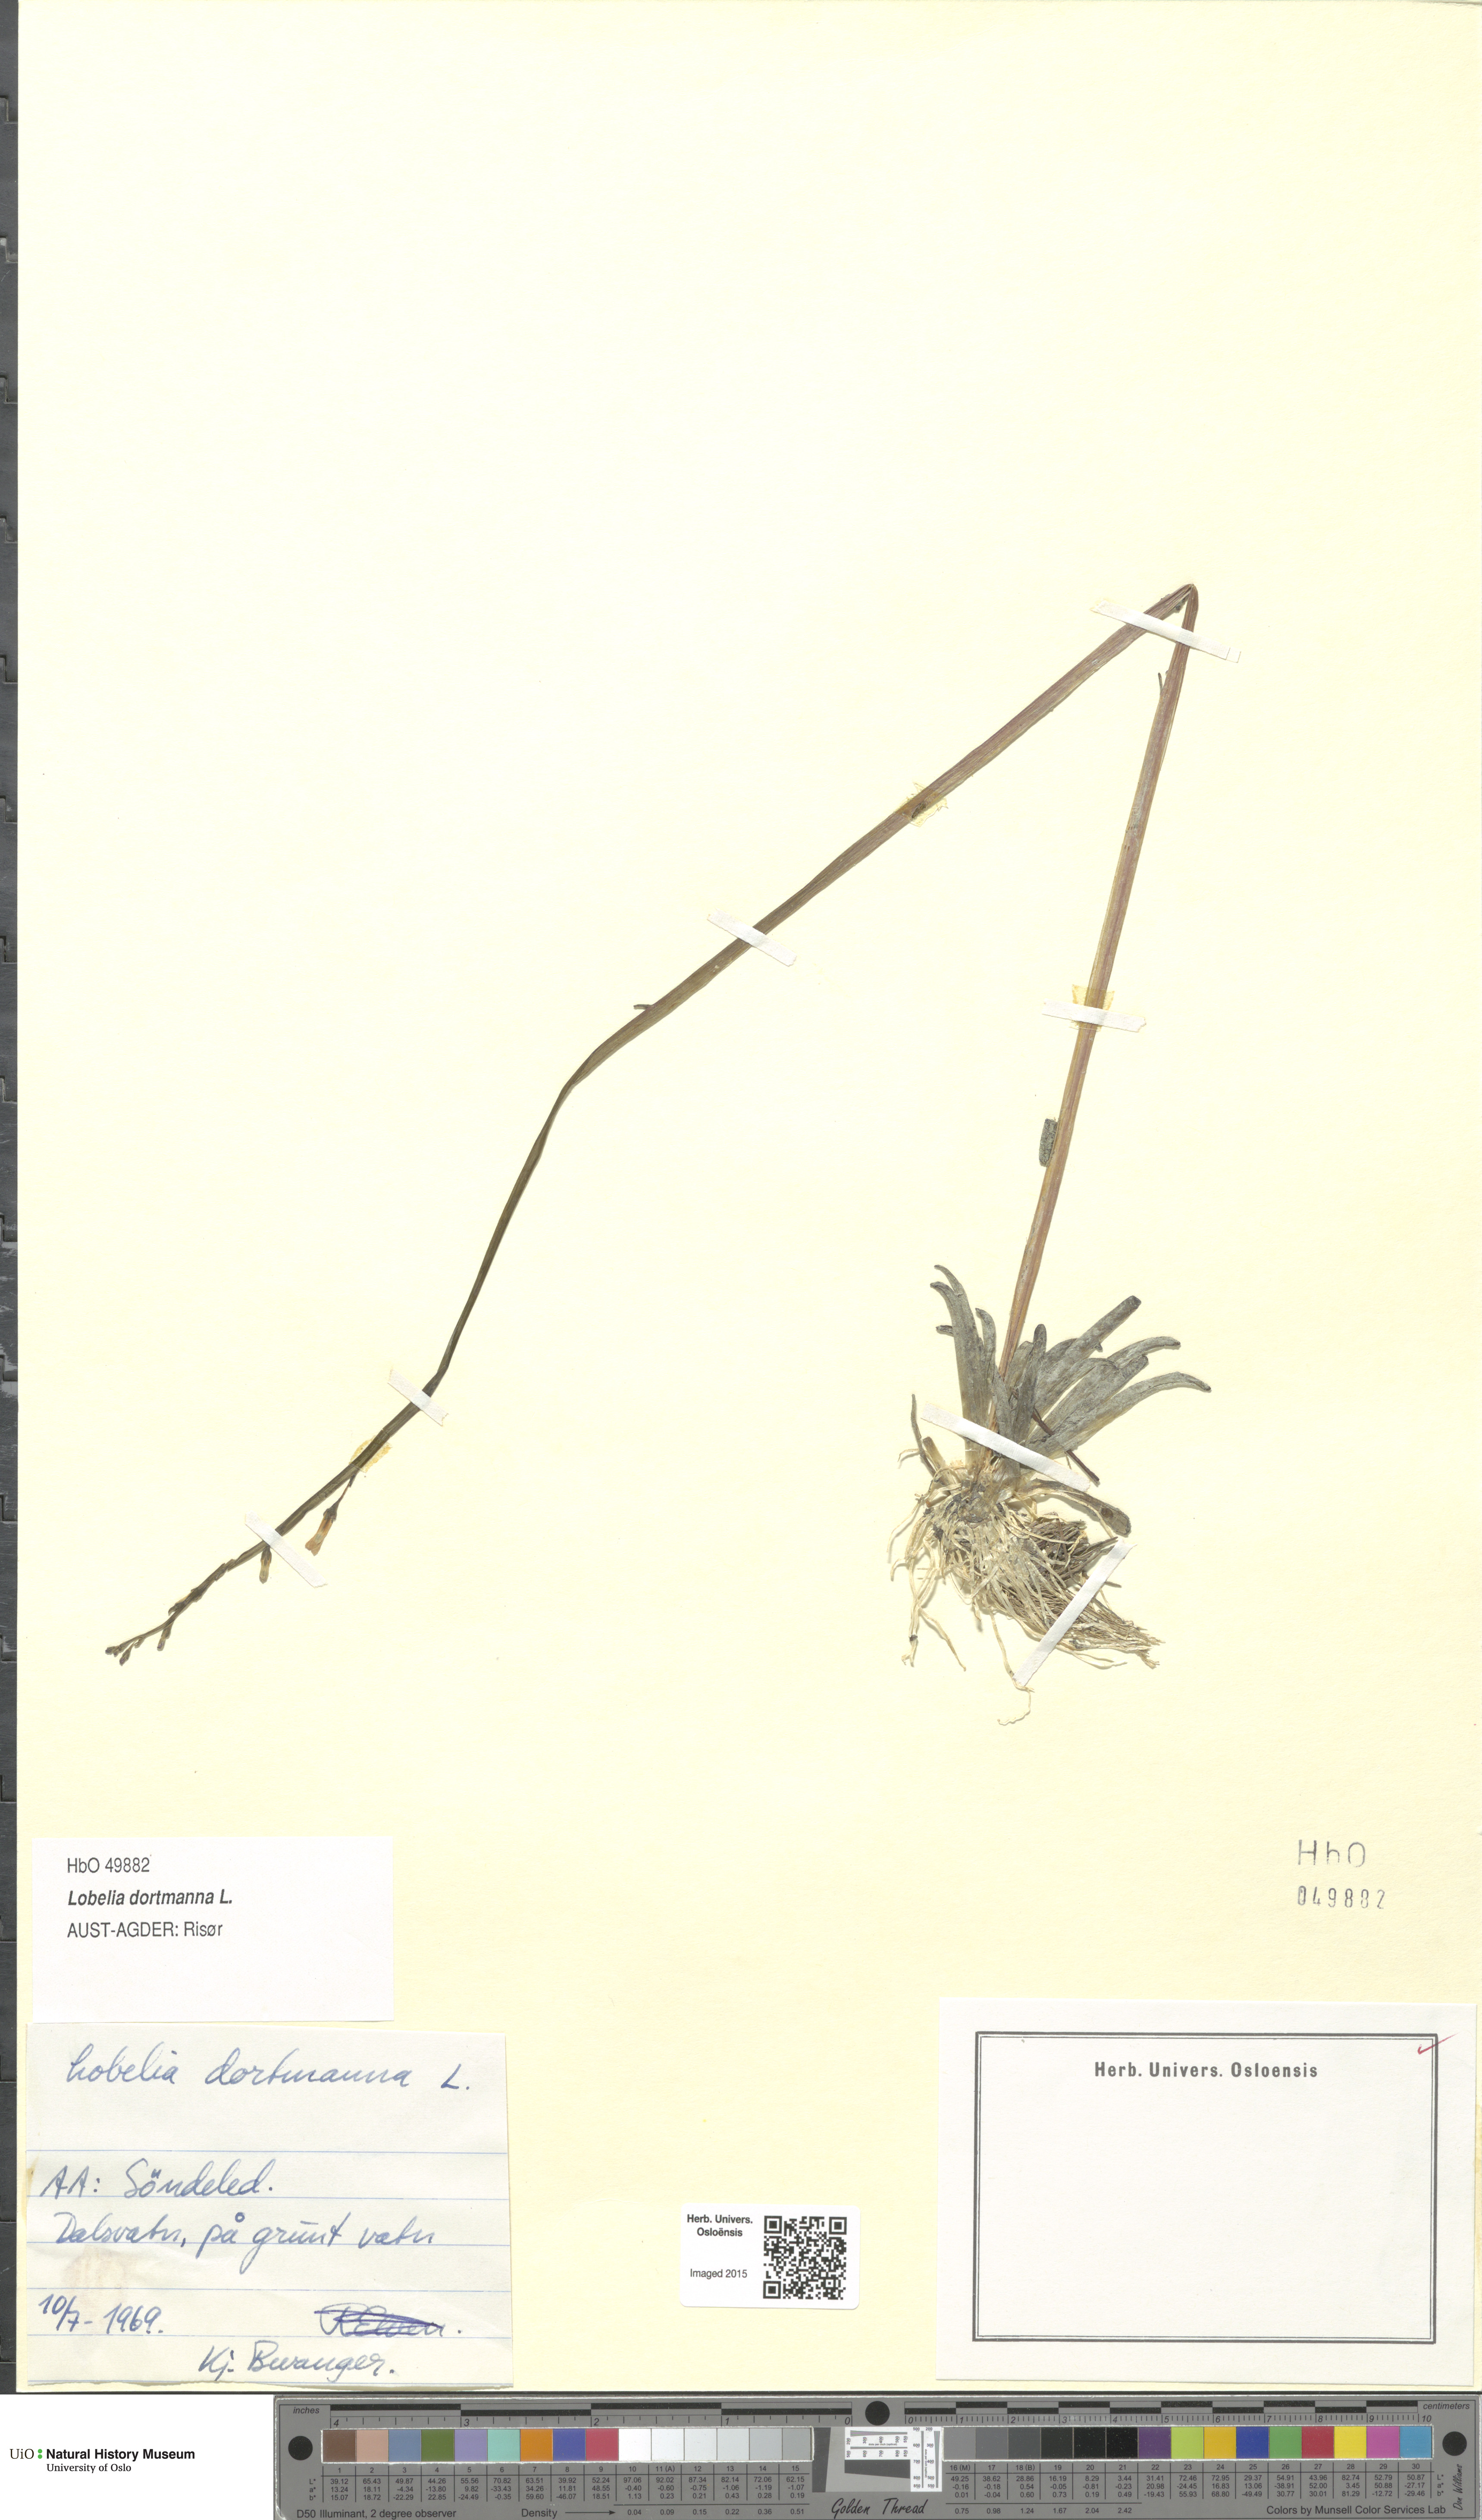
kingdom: Plantae
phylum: Tracheophyta
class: Magnoliopsida
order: Asterales
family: Campanulaceae
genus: Lobelia
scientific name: Lobelia dortmanna
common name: Water lobelia
